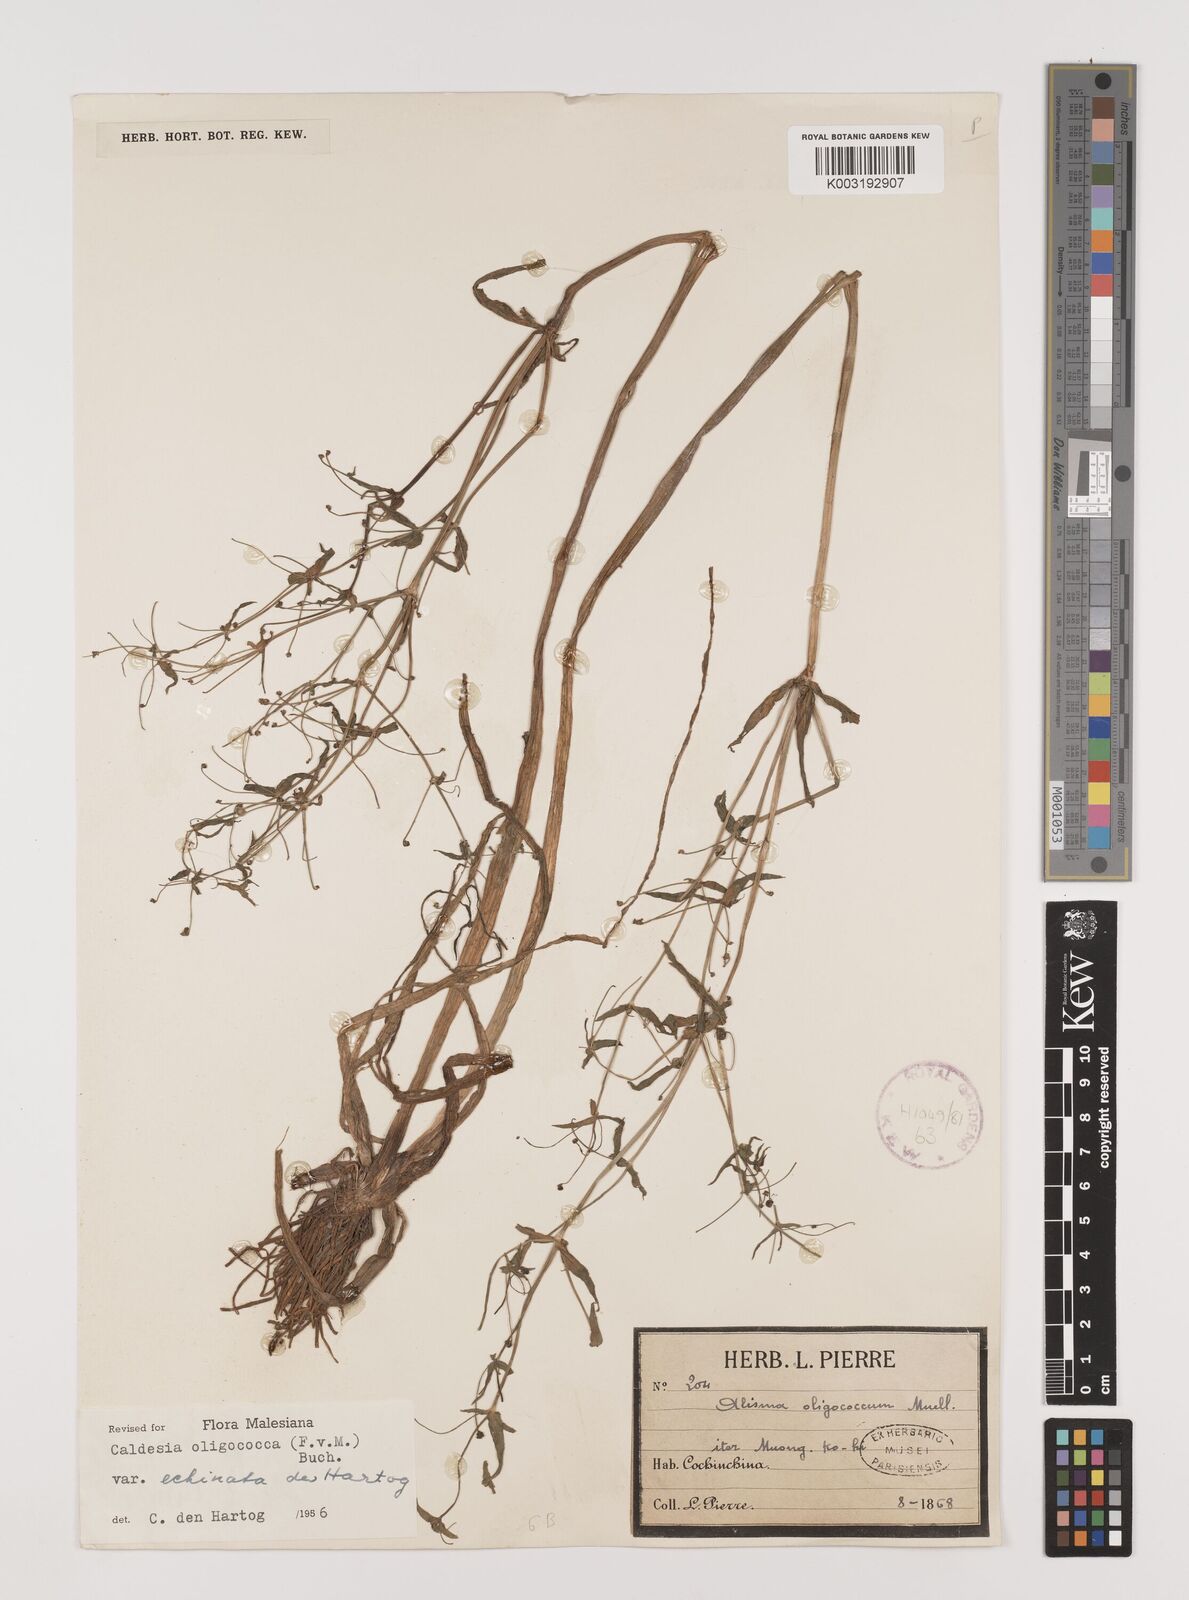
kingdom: Plantae
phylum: Tracheophyta
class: Liliopsida
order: Alismatales
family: Alismataceae
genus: Albidella
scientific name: Albidella glandulosa
